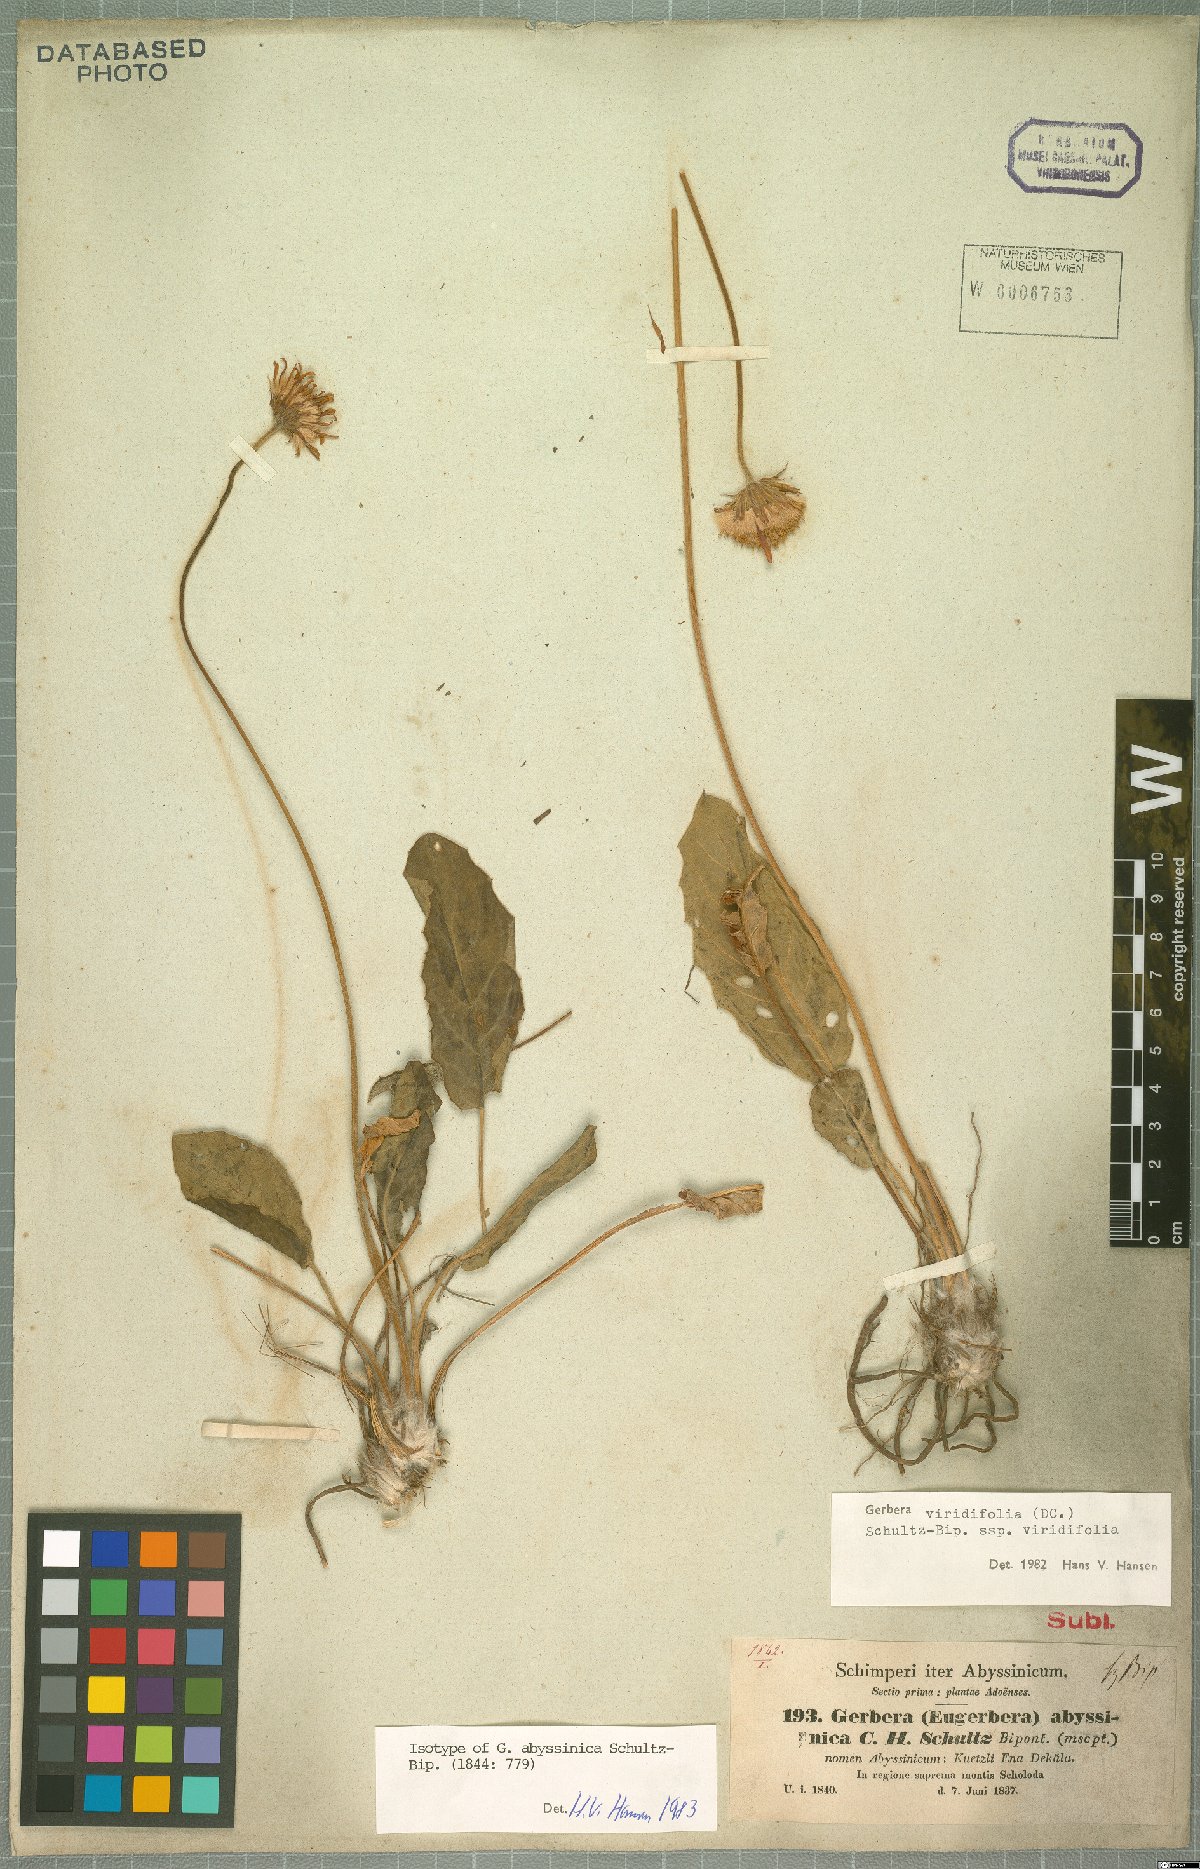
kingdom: Plantae
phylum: Tracheophyta
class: Magnoliopsida
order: Asterales
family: Asteraceae
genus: Gerbera
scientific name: Gerbera viridifolia
